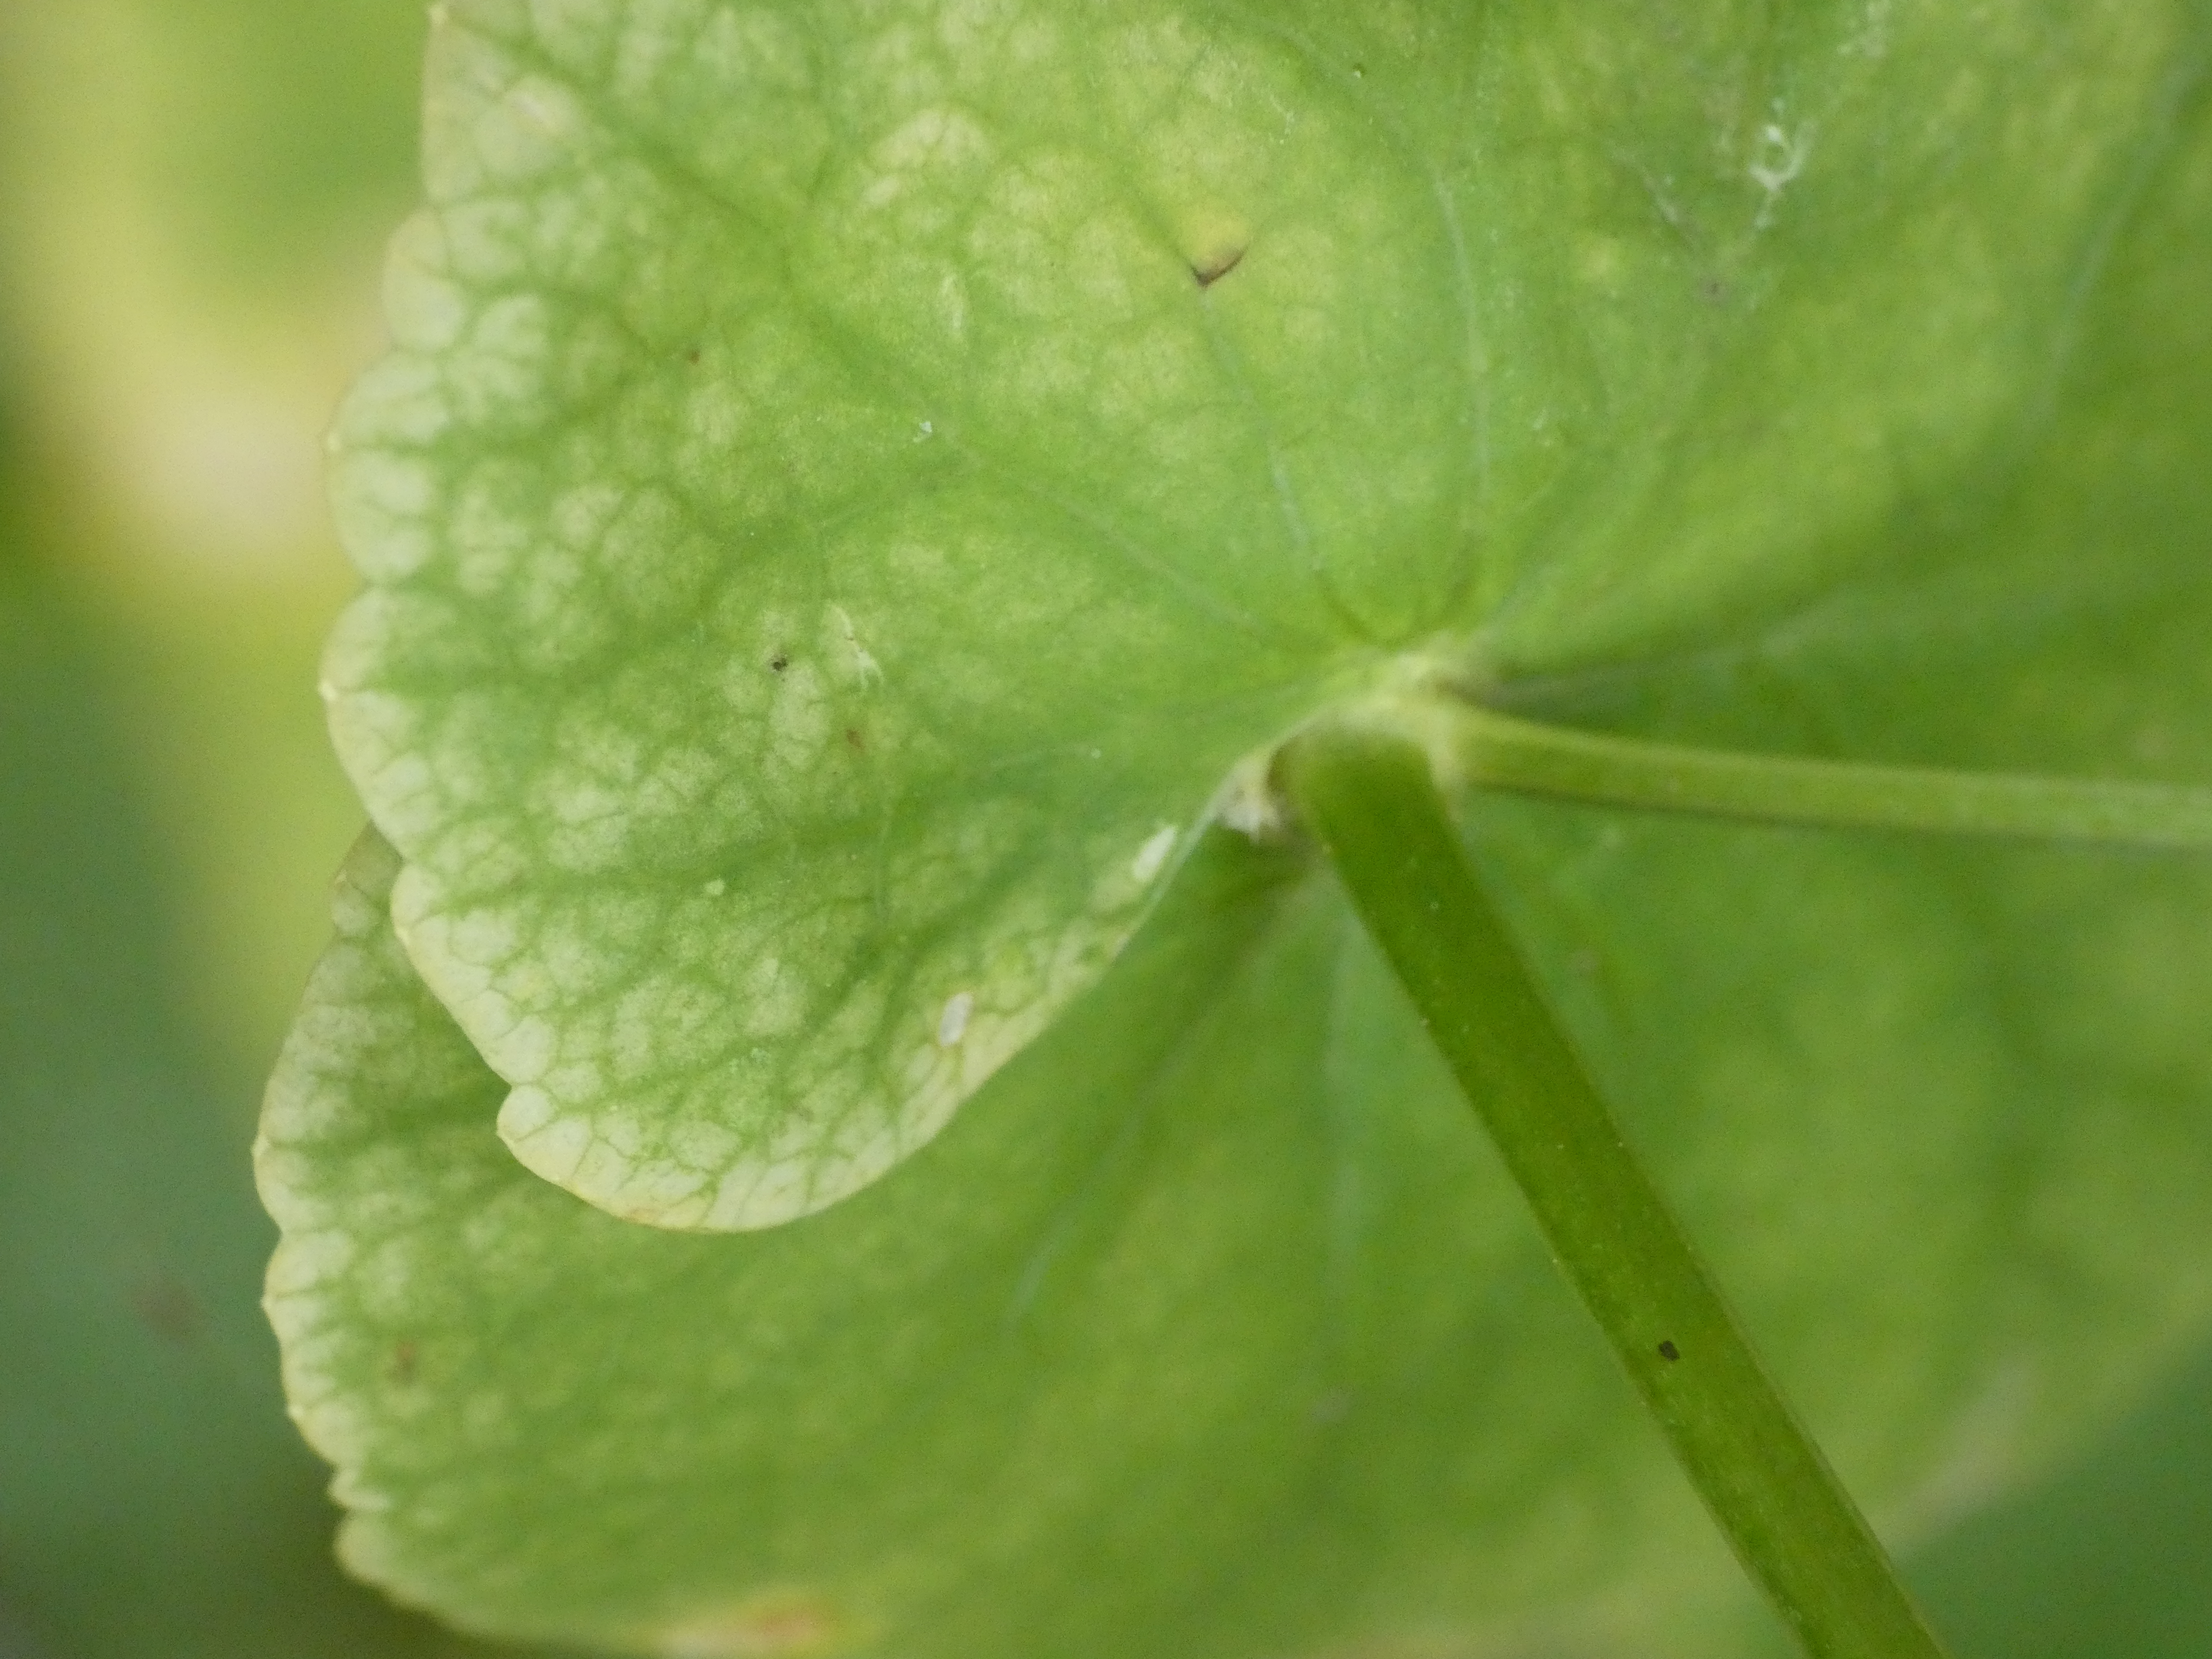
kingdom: Plantae
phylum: Tracheophyta
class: Magnoliopsida
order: Apiales
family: Apiaceae
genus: Smyrnium
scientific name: Smyrnium perfoliatum
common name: Lundgylden
